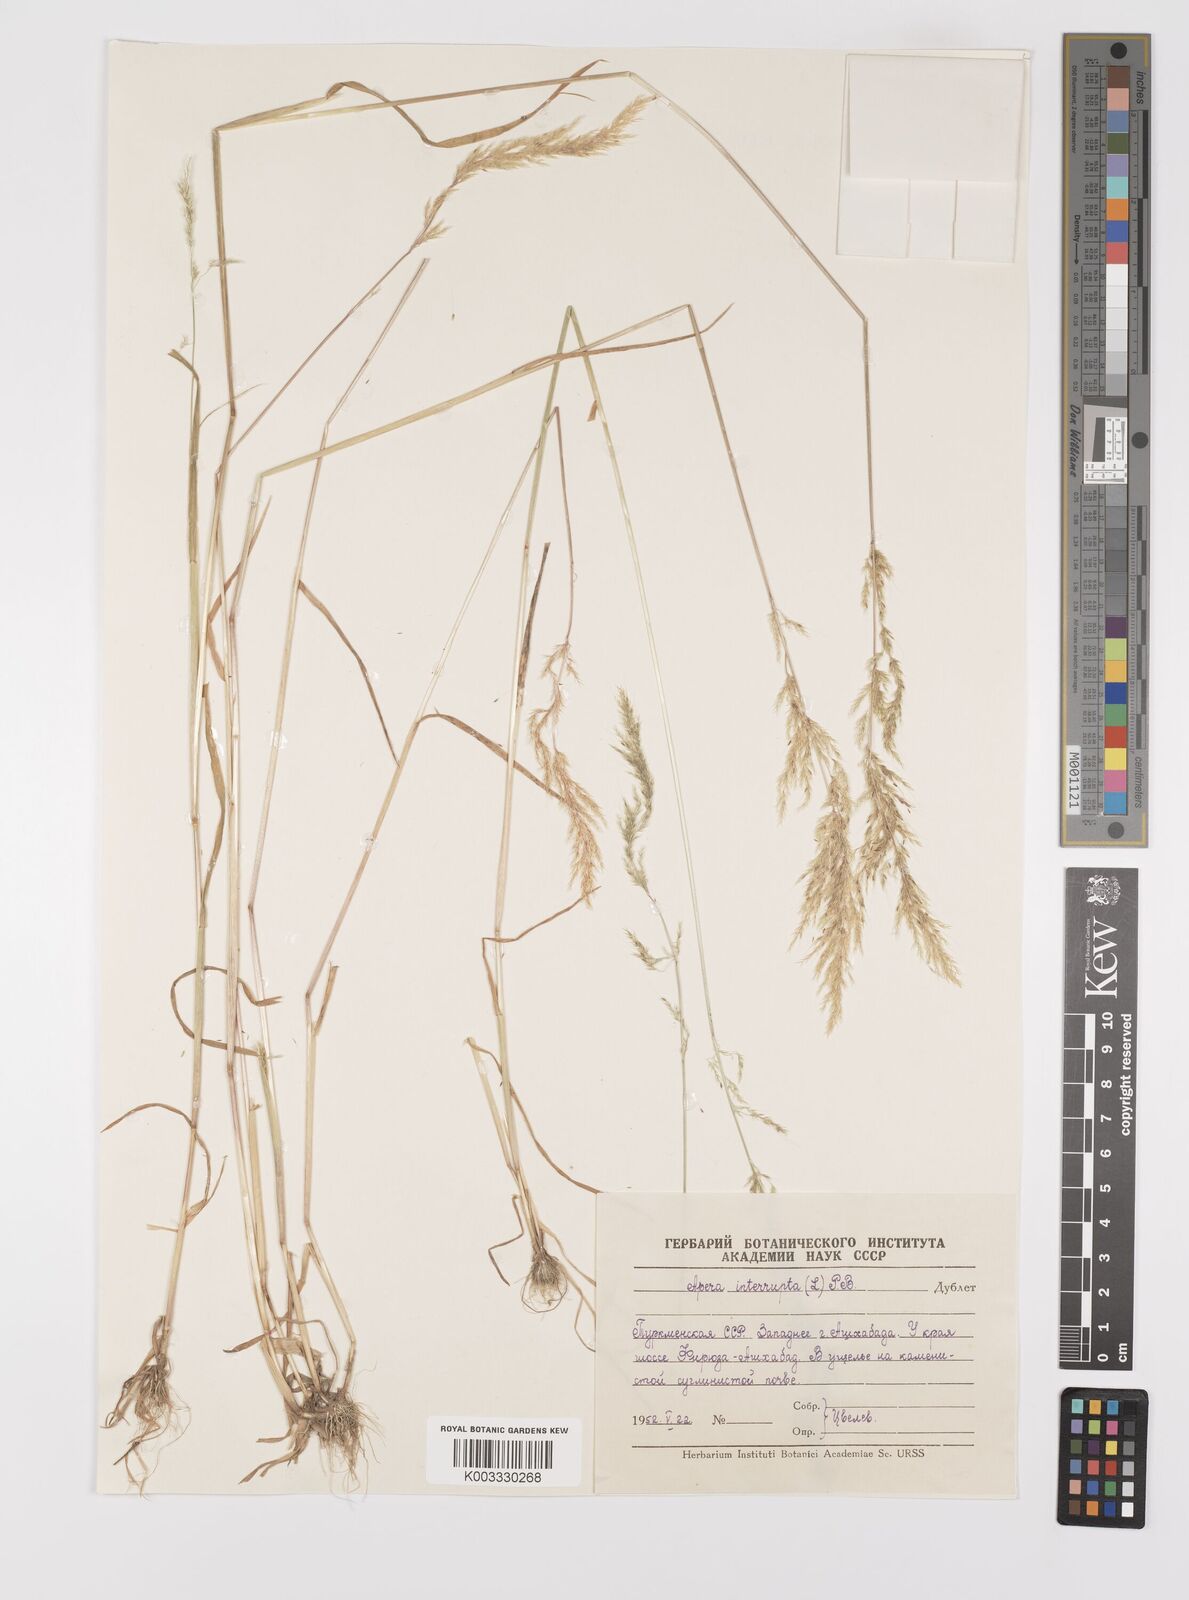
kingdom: Plantae
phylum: Tracheophyta
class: Liliopsida
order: Poales
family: Poaceae
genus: Apera
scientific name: Apera interrupta
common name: Dense silky-bent
